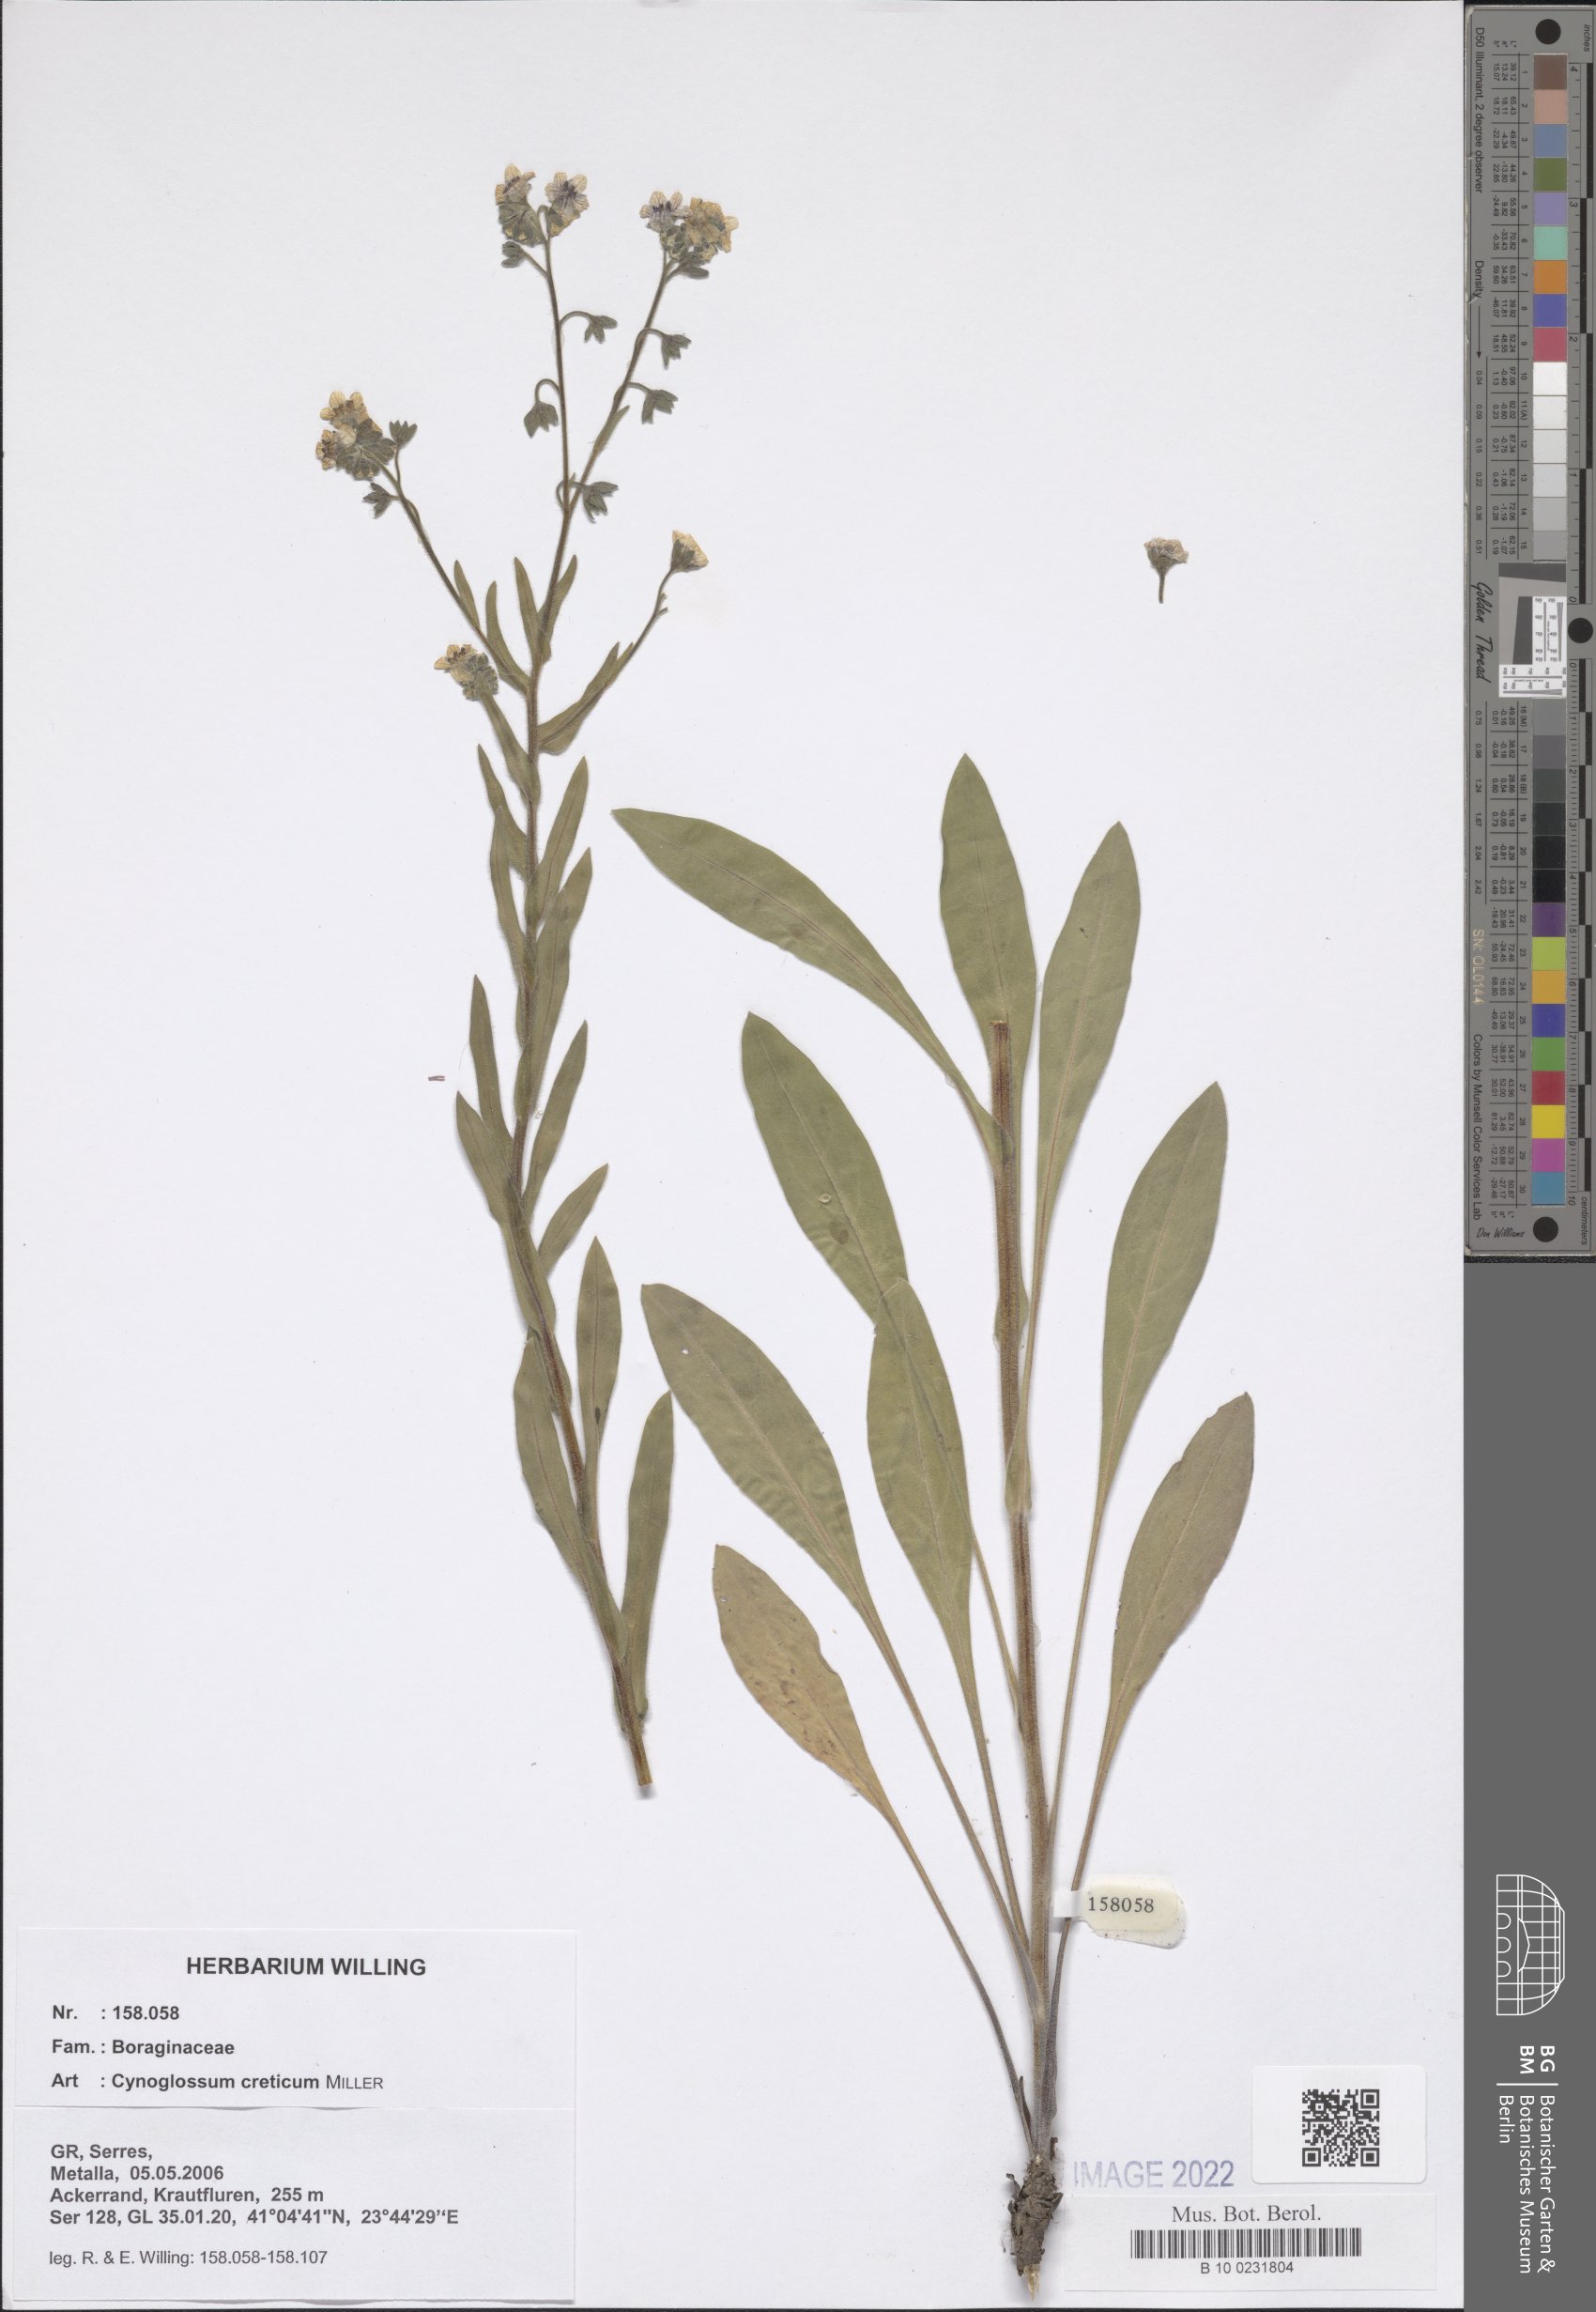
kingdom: Plantae
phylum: Tracheophyta
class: Magnoliopsida
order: Boraginales
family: Boraginaceae
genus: Cynoglossum
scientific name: Cynoglossum creticum
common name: Blue hound's tongue
